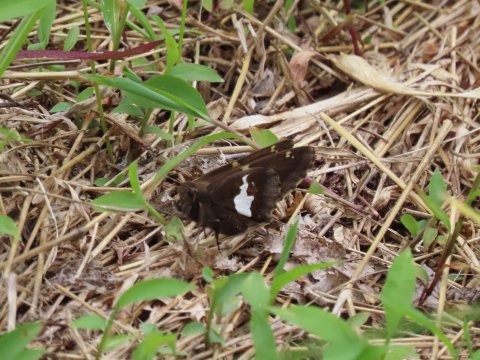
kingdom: Animalia
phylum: Arthropoda
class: Insecta
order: Lepidoptera
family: Hesperiidae
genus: Epargyreus
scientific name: Epargyreus clarus
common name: Silver-spotted Skipper
